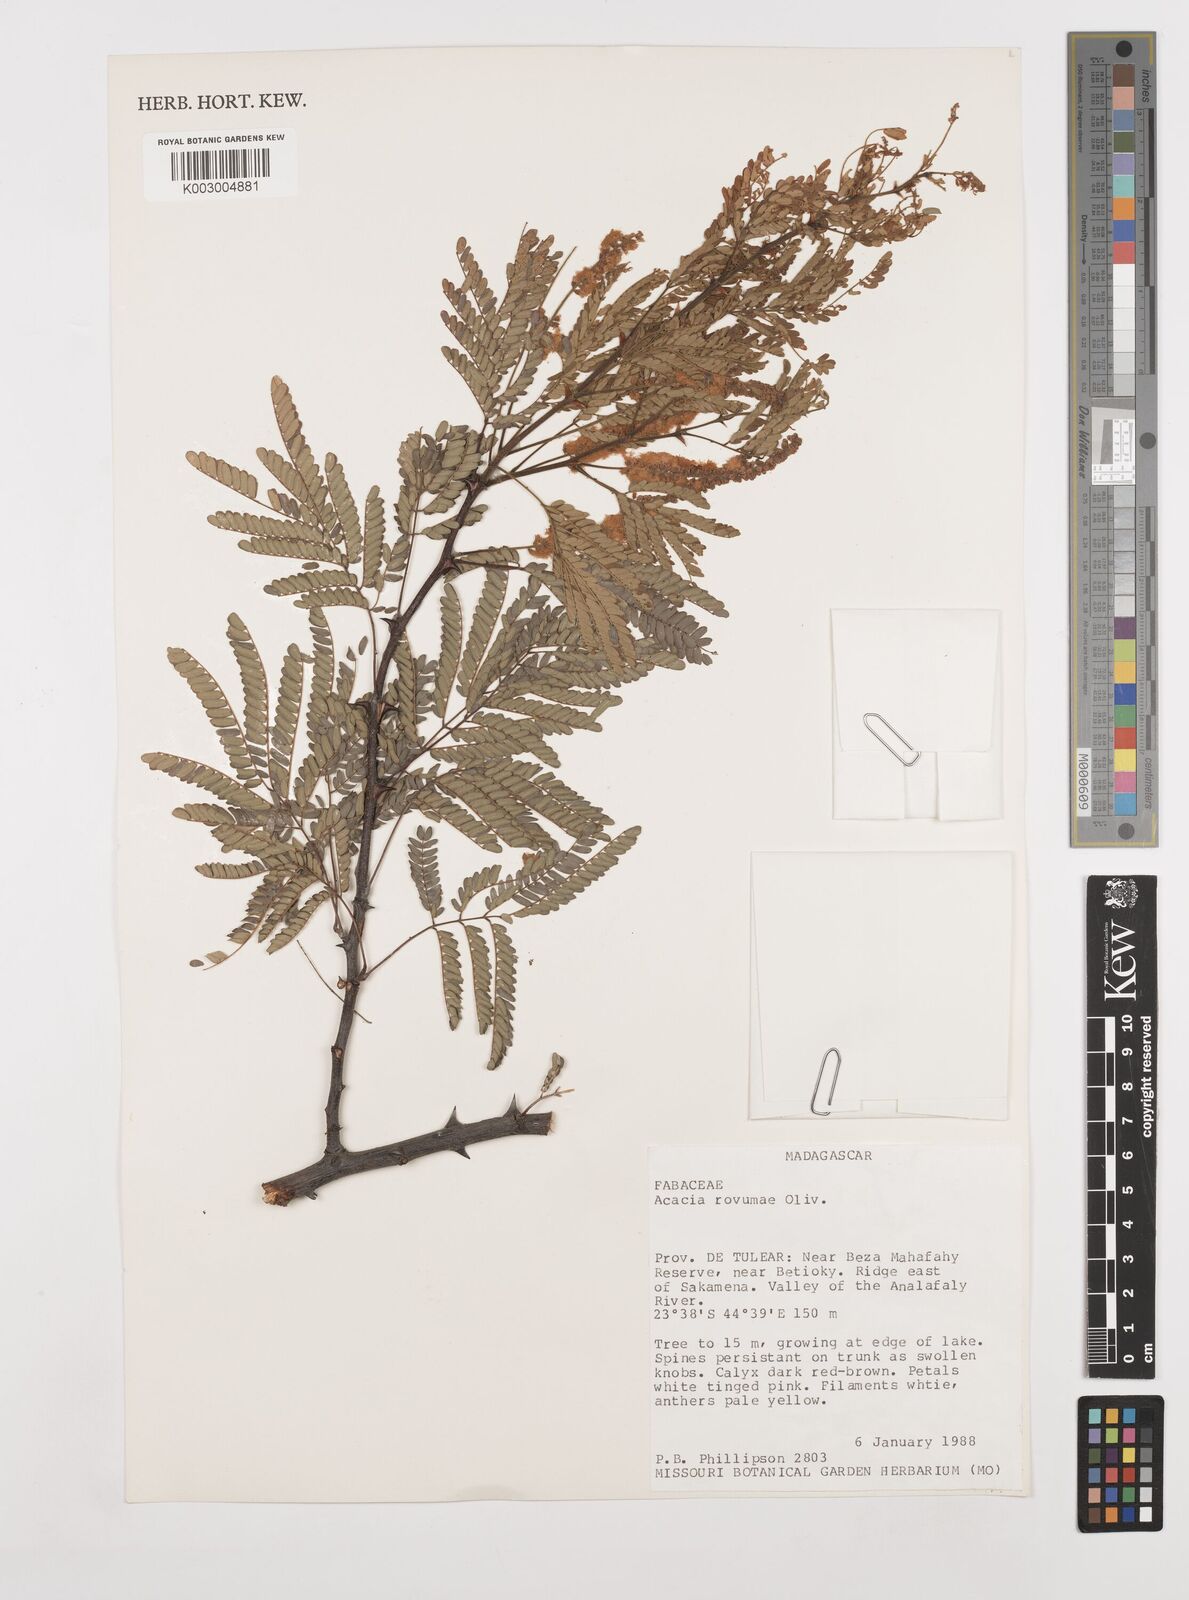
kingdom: Plantae
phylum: Tracheophyta
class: Magnoliopsida
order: Fabales
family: Fabaceae
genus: Senegalia
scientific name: Senegalia rovumae
